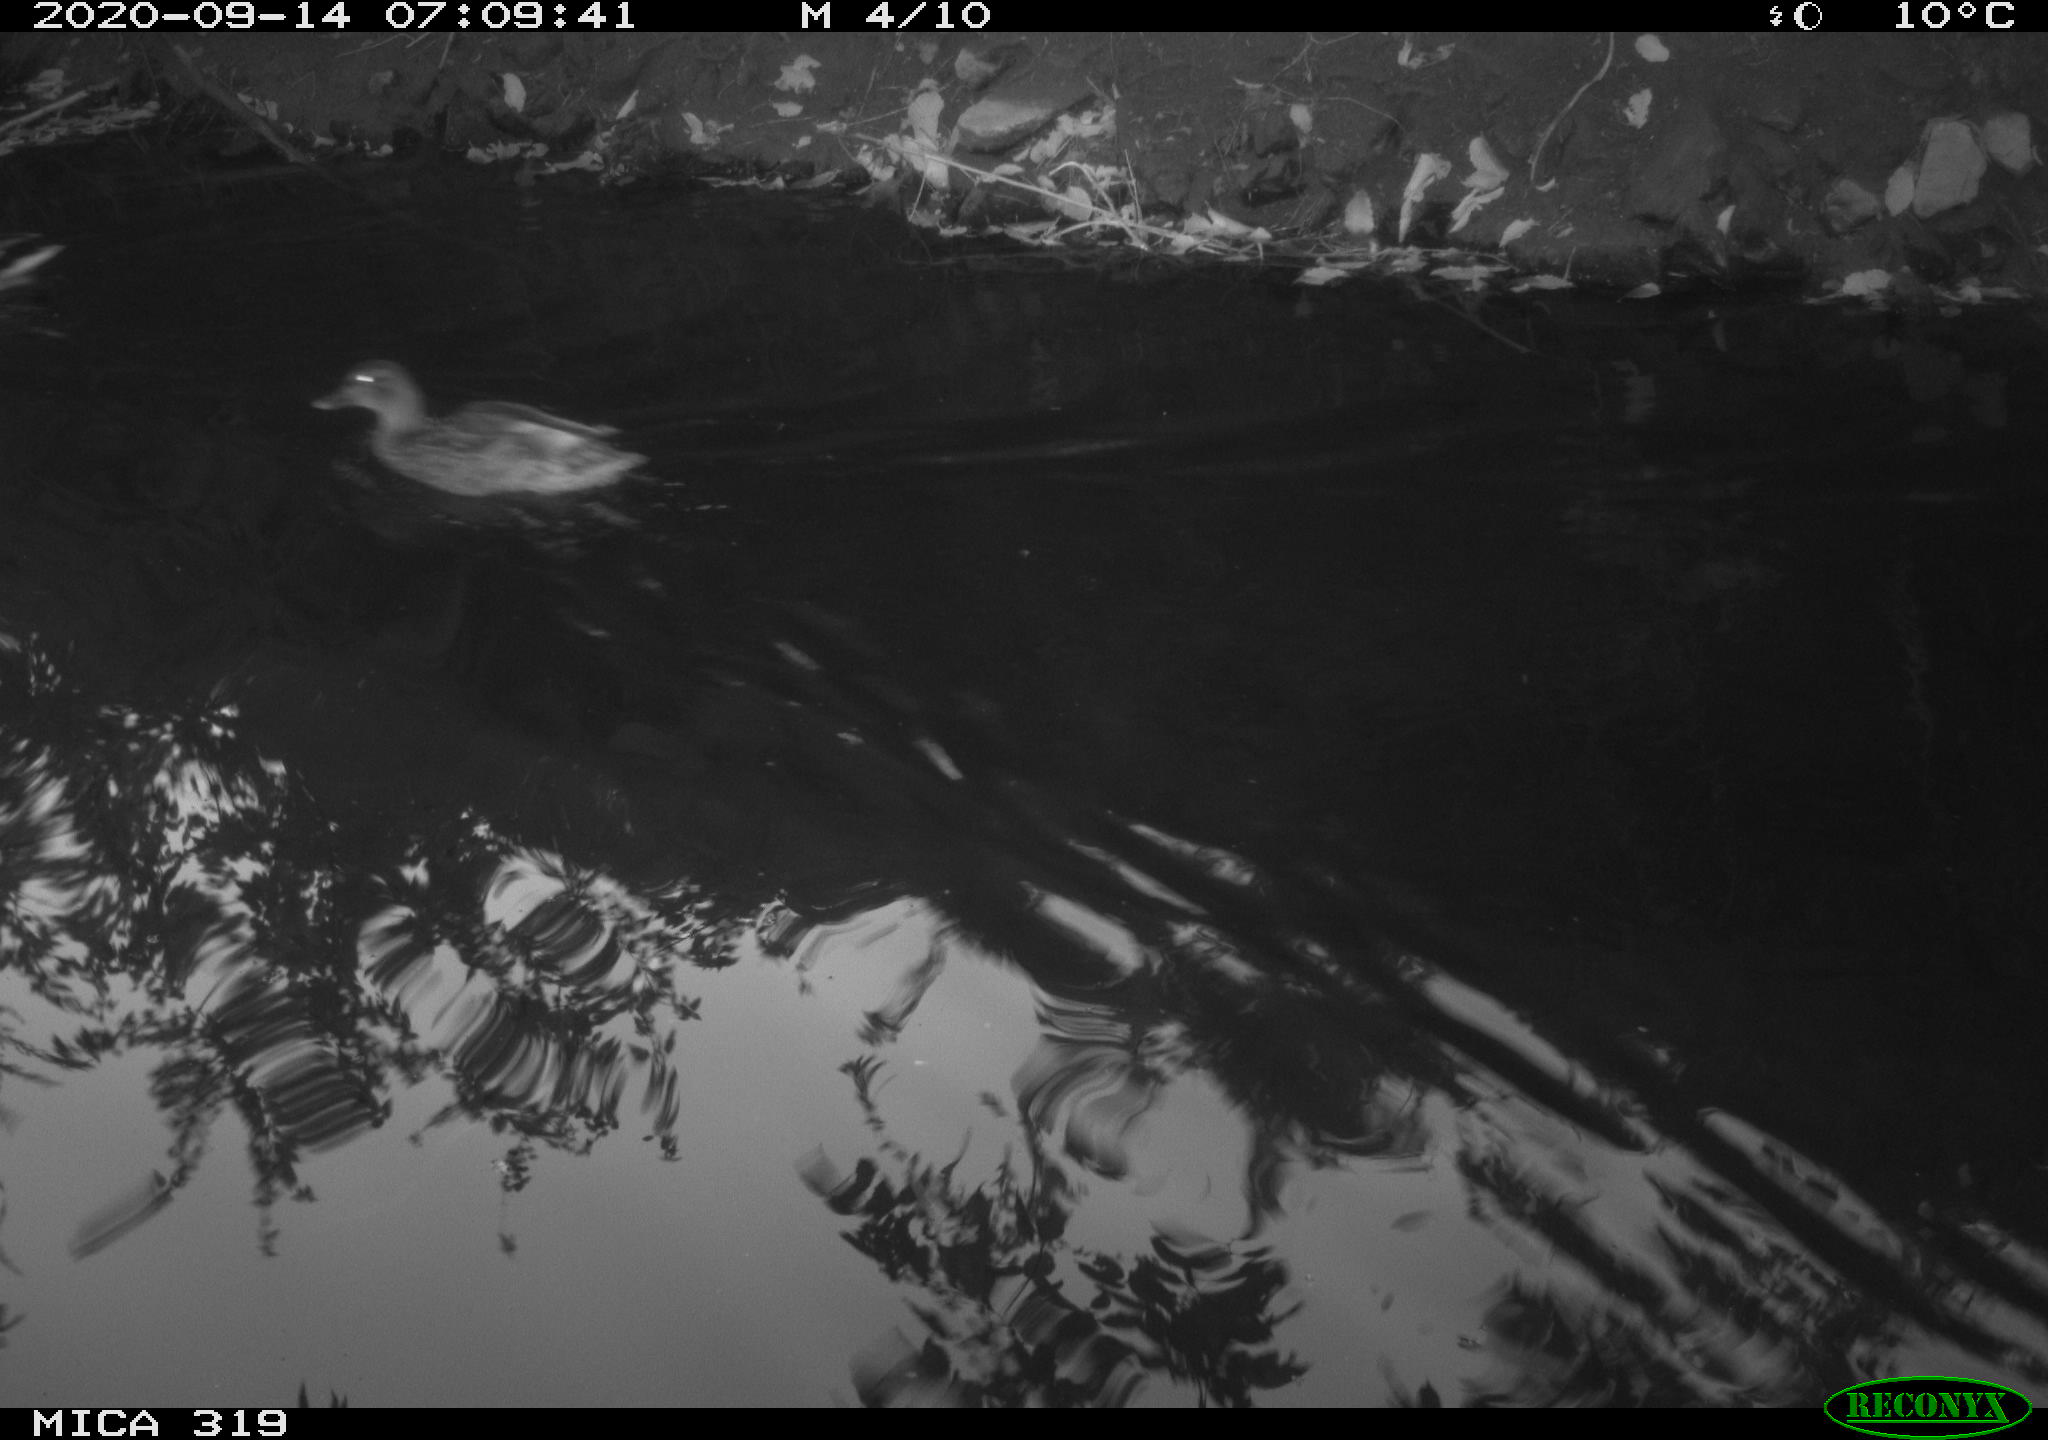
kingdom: Animalia
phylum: Chordata
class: Aves
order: Anseriformes
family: Anatidae
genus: Anas
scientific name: Anas platyrhynchos
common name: Mallard
